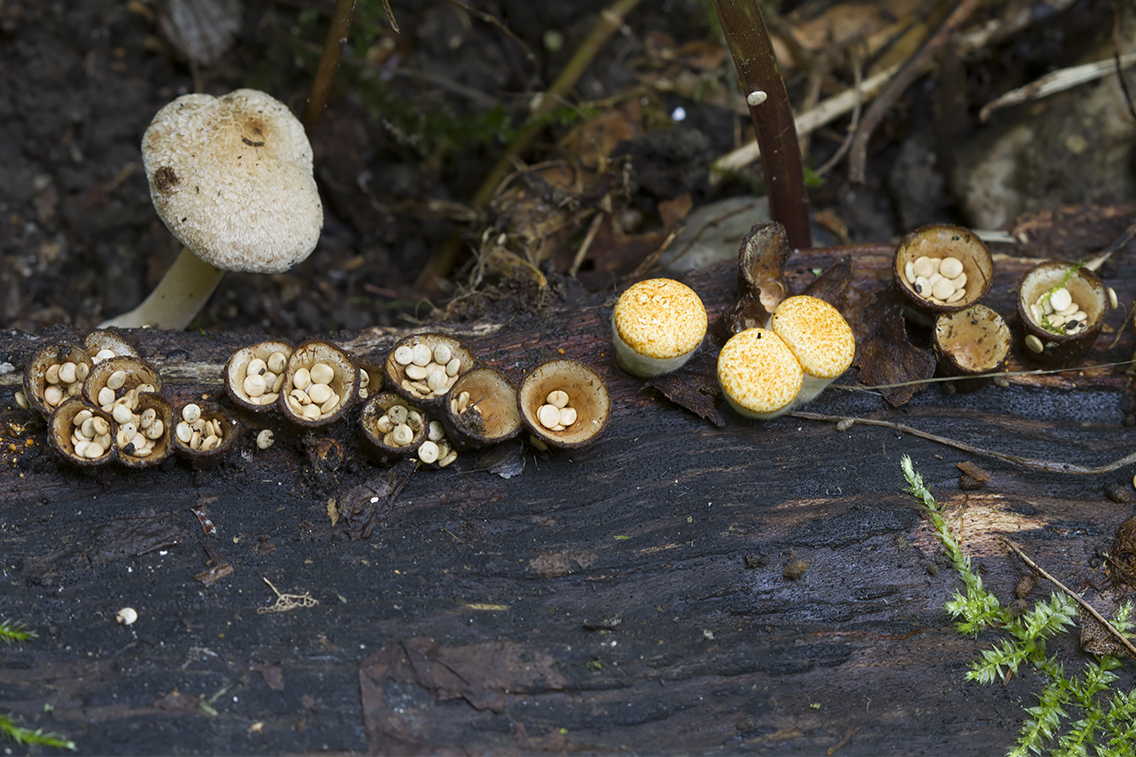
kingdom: Fungi
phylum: Basidiomycota
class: Agaricomycetes
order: Agaricales
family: Nidulariaceae
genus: Crucibulum
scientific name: Crucibulum crucibuliforme
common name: krukkesvamp
